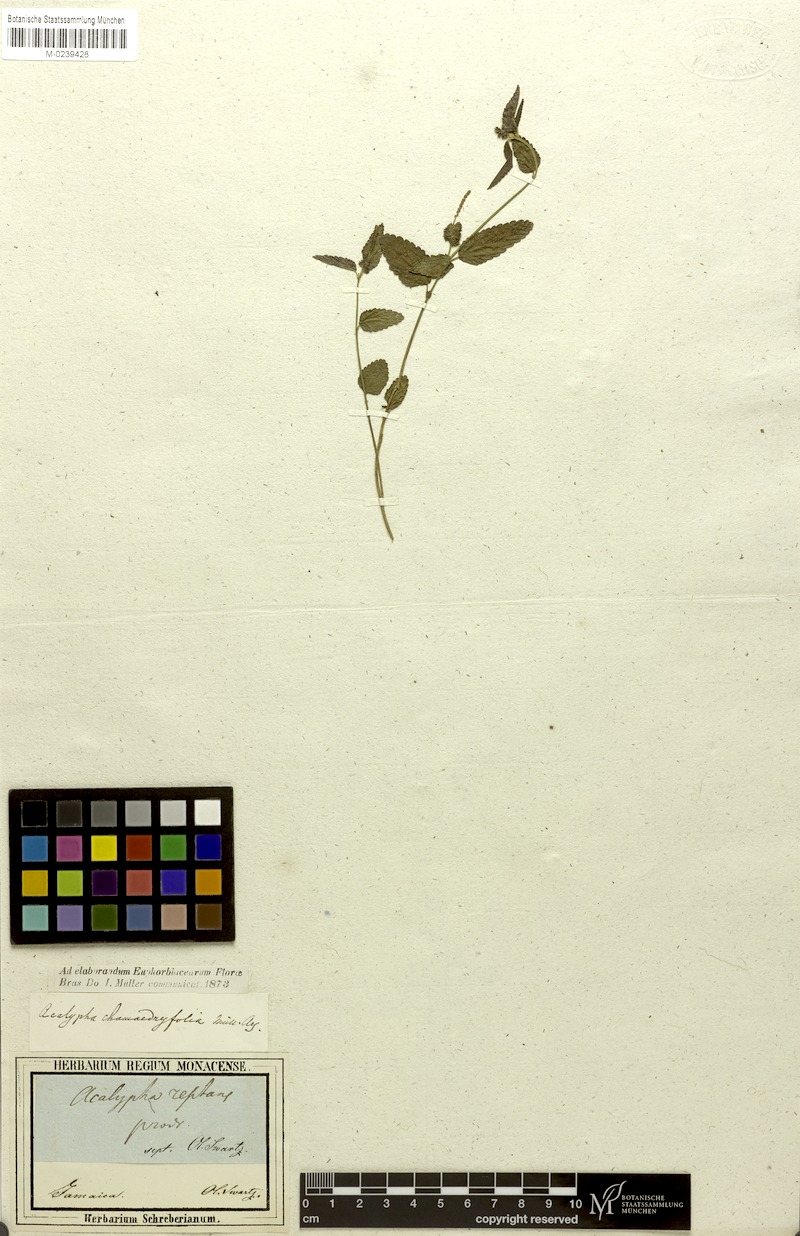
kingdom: Plantae
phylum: Tracheophyta
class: Magnoliopsida
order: Malpighiales
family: Euphorbiaceae
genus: Acalypha
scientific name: Acalypha chamaedrifolia
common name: Bastard copperleaf
